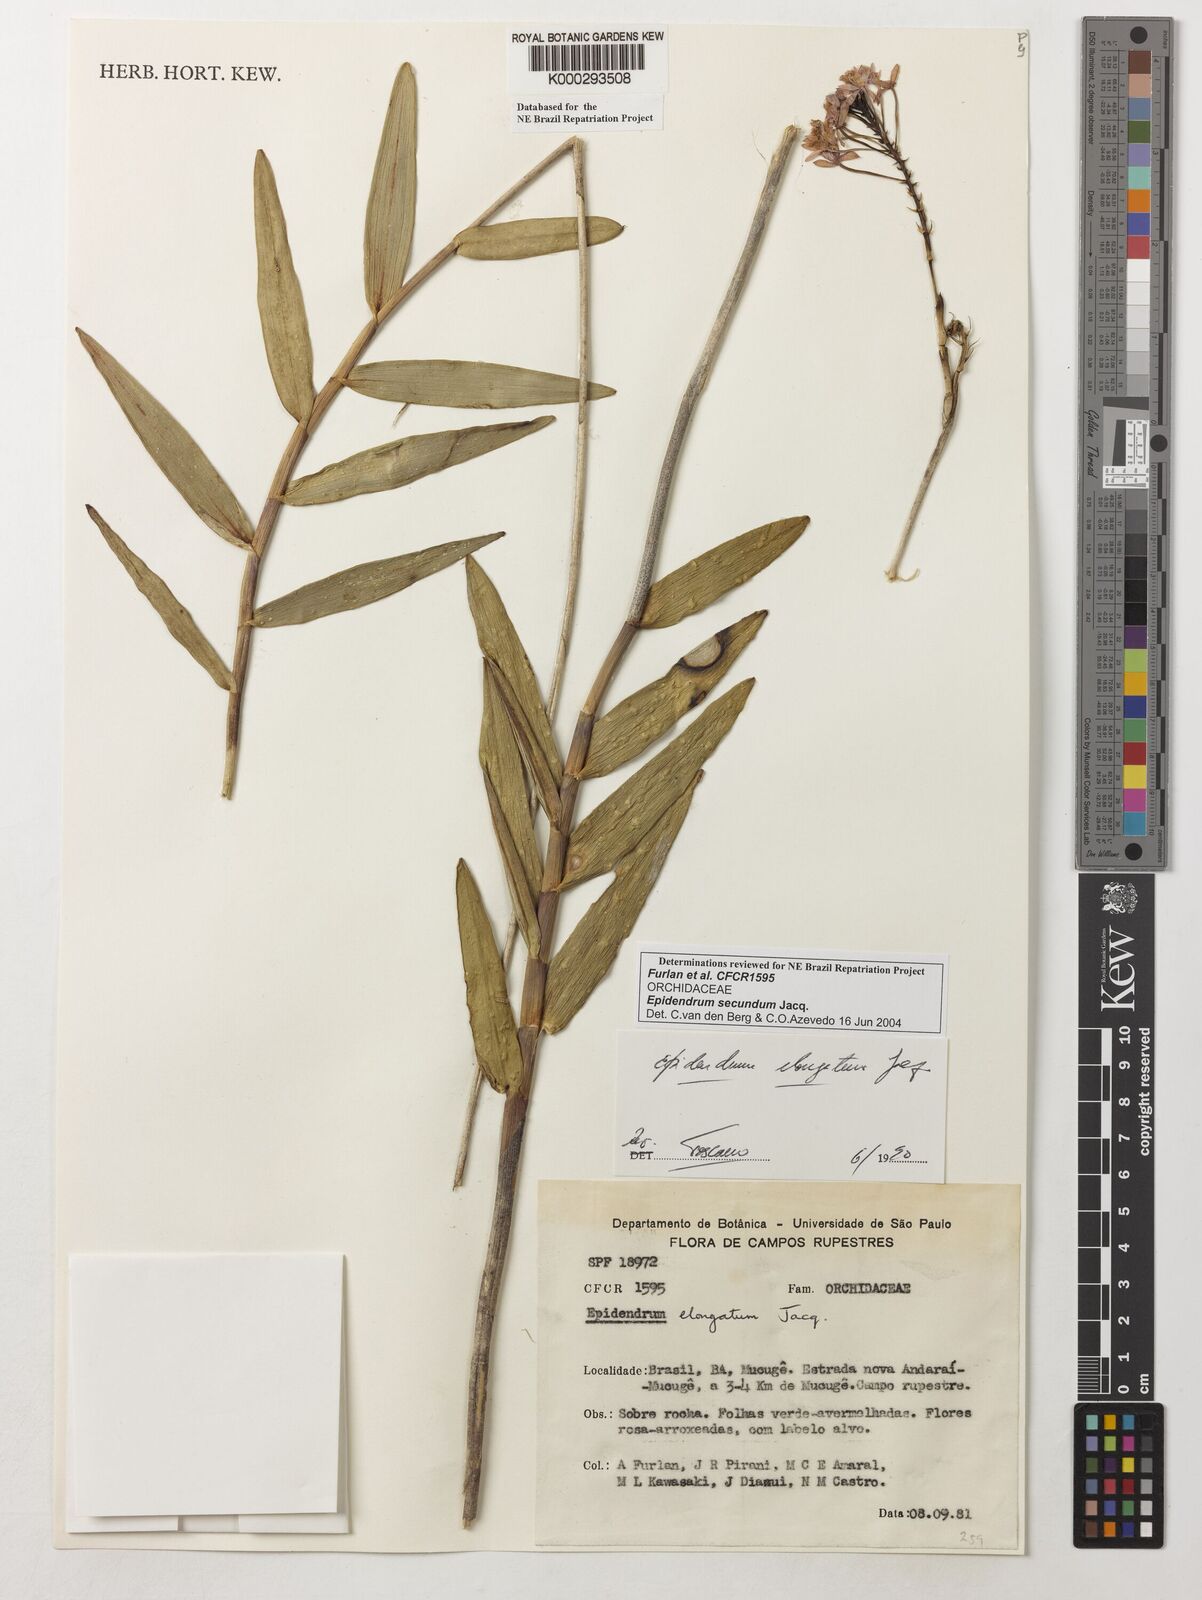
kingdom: Plantae
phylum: Tracheophyta
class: Liliopsida
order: Asparagales
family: Orchidaceae
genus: Epidendrum
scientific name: Epidendrum secundum
